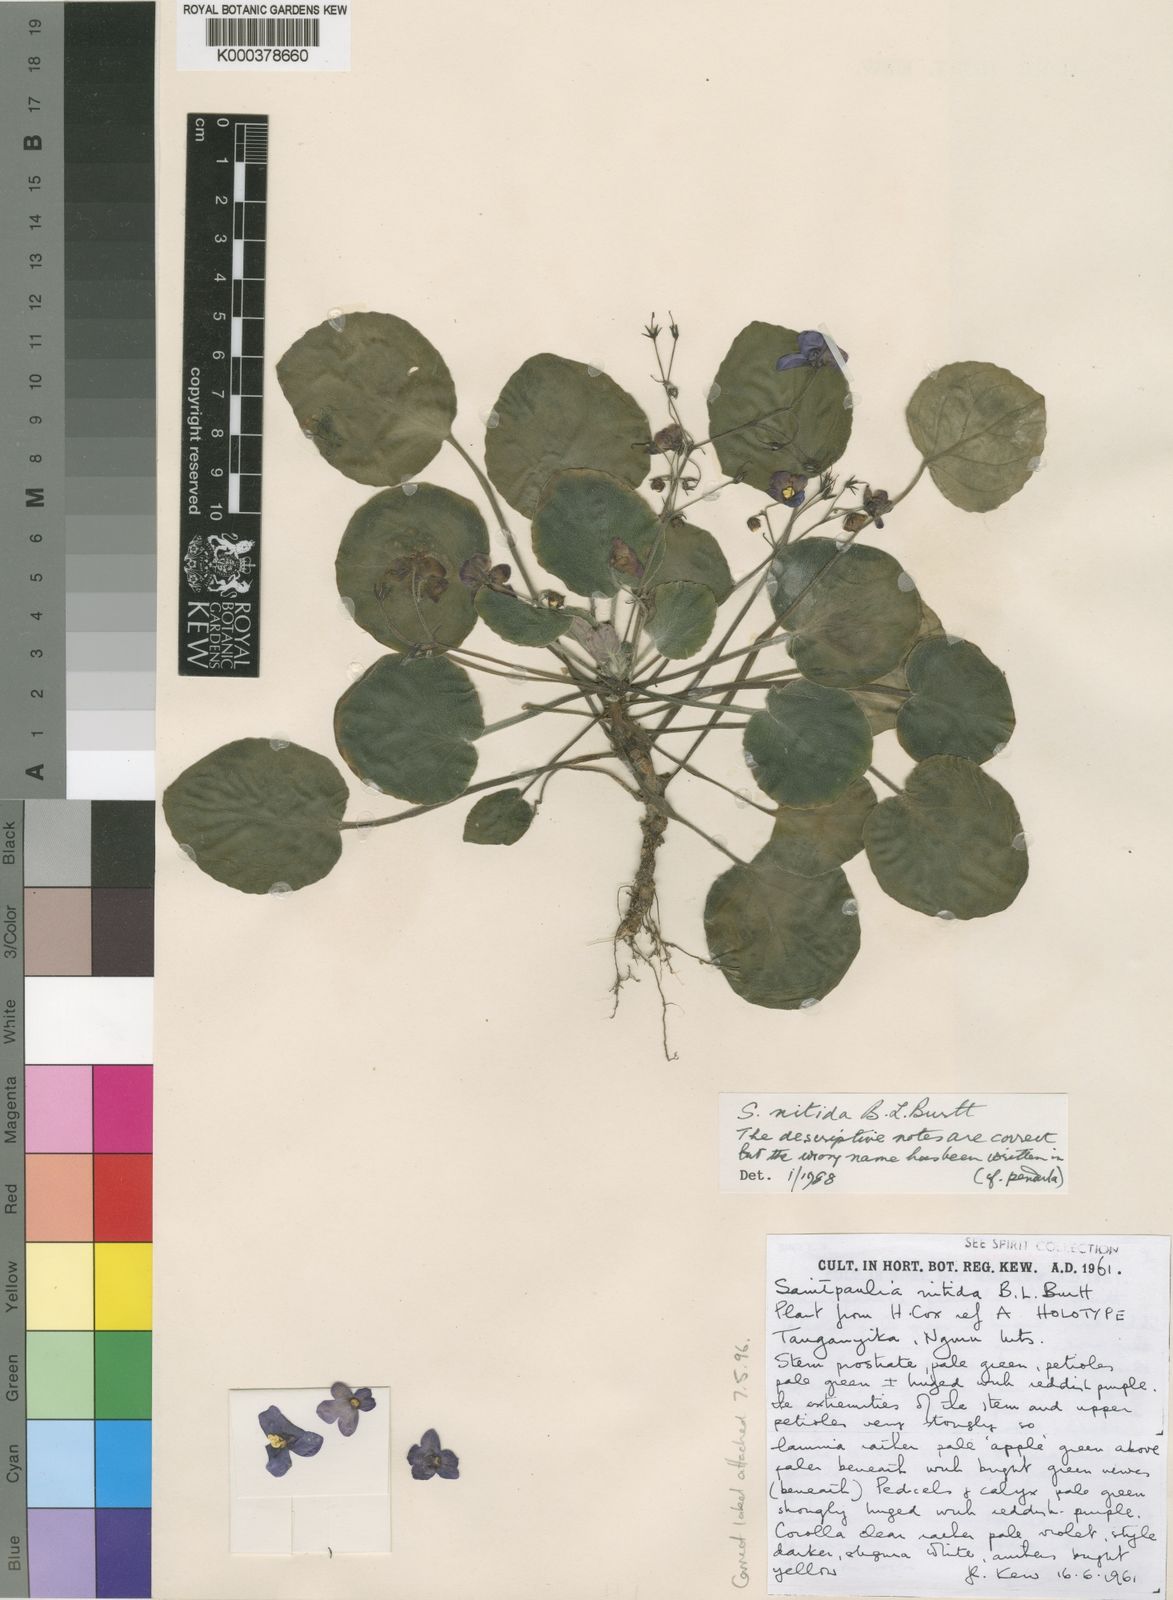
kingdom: Plantae
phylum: Tracheophyta
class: Magnoliopsida
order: Lamiales
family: Gesneriaceae
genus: Streptocarpus
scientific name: Streptocarpus nitidus
